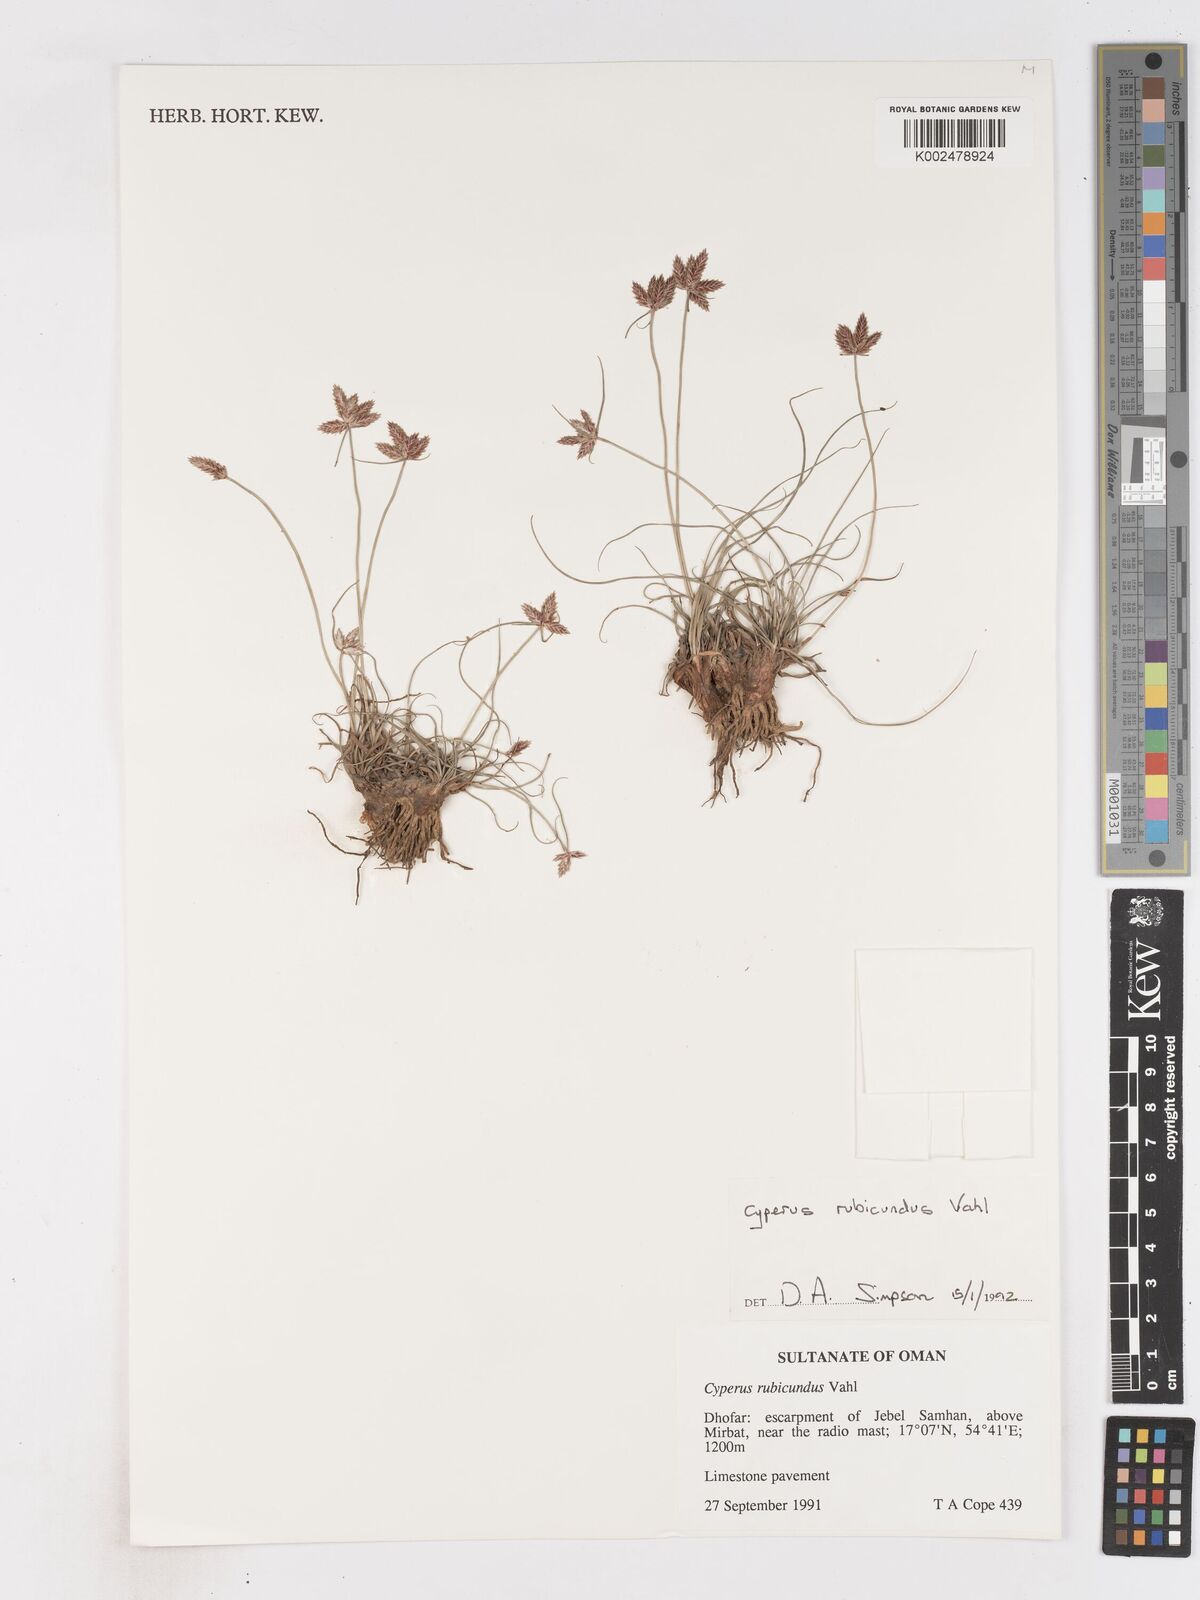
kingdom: Plantae
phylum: Tracheophyta
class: Liliopsida
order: Poales
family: Cyperaceae
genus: Cyperus
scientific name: Cyperus wissmannii
